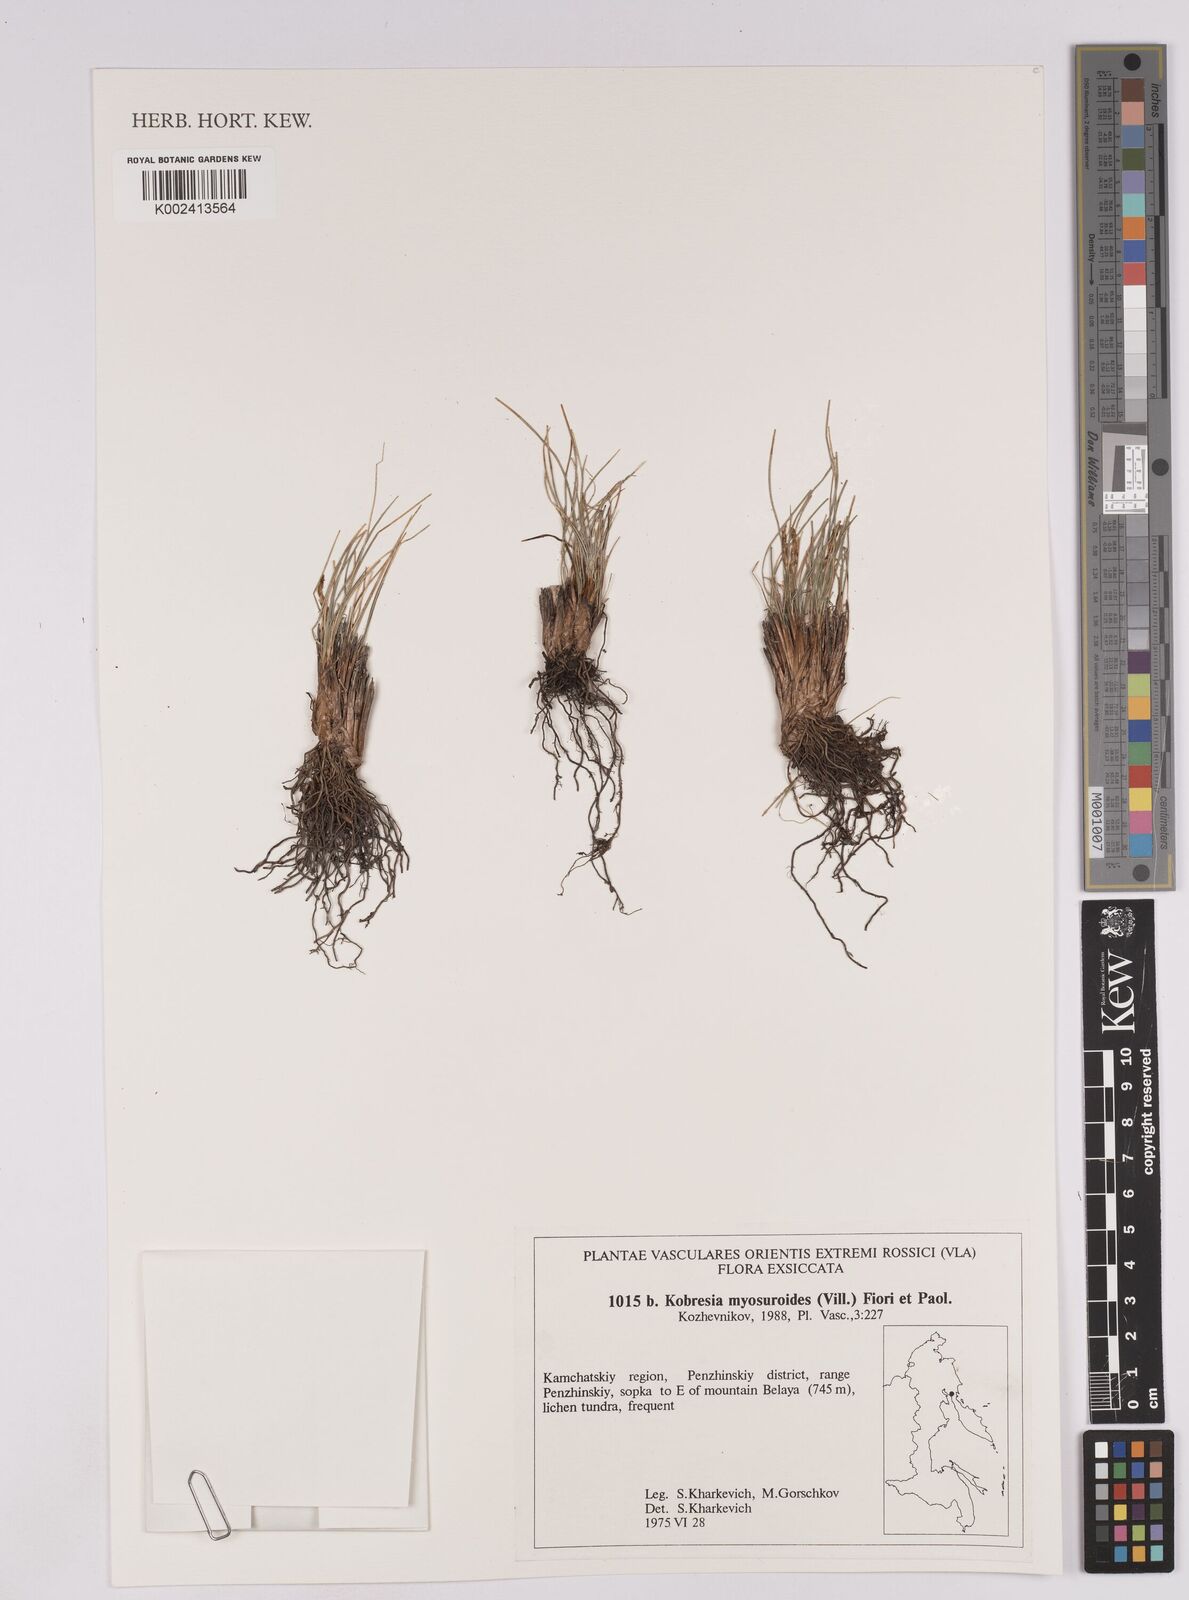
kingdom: Plantae
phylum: Tracheophyta
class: Liliopsida
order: Poales
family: Cyperaceae
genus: Carex
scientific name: Carex myosuroides
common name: Bellard's bog sedge
